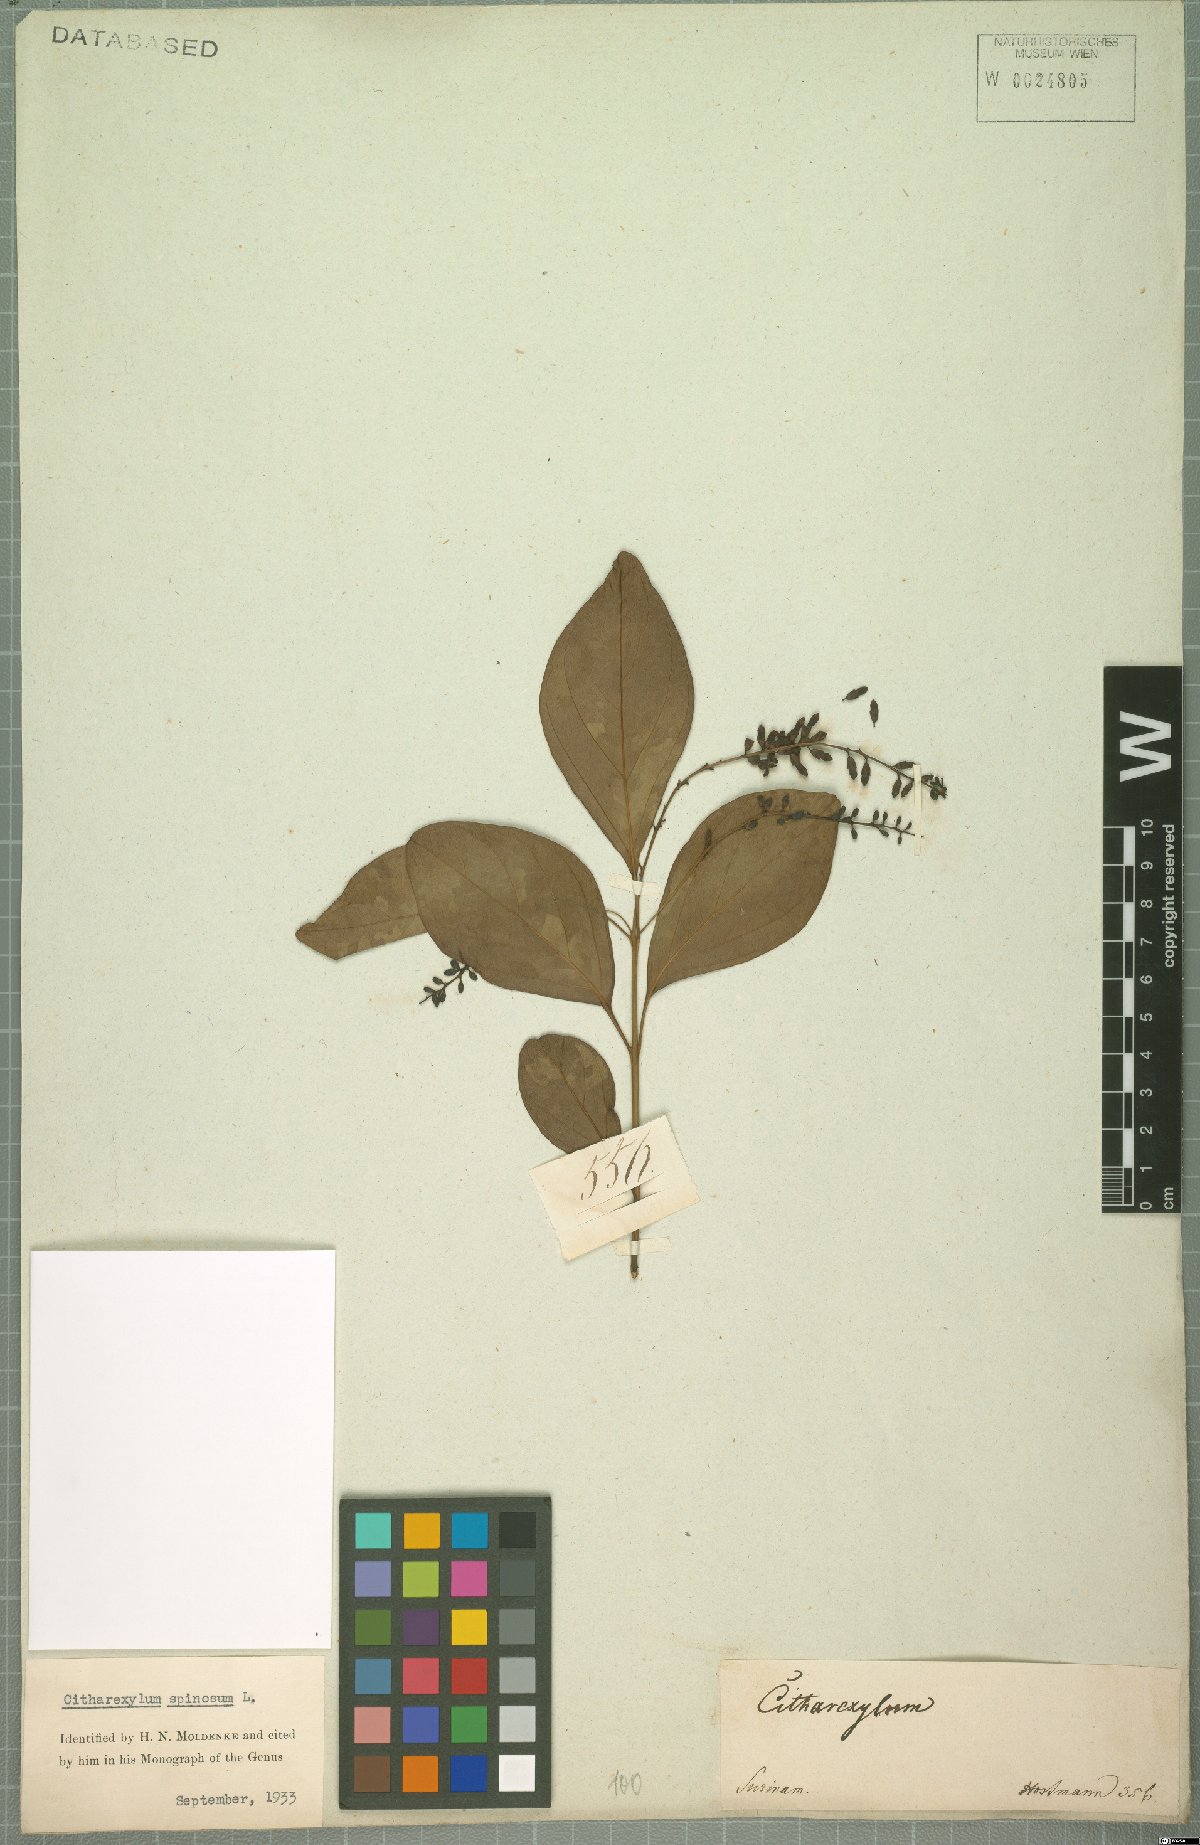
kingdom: Plantae
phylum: Tracheophyta
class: Magnoliopsida
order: Lamiales
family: Verbenaceae
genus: Citharexylum
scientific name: Citharexylum spinosum
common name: Fiddlewood
